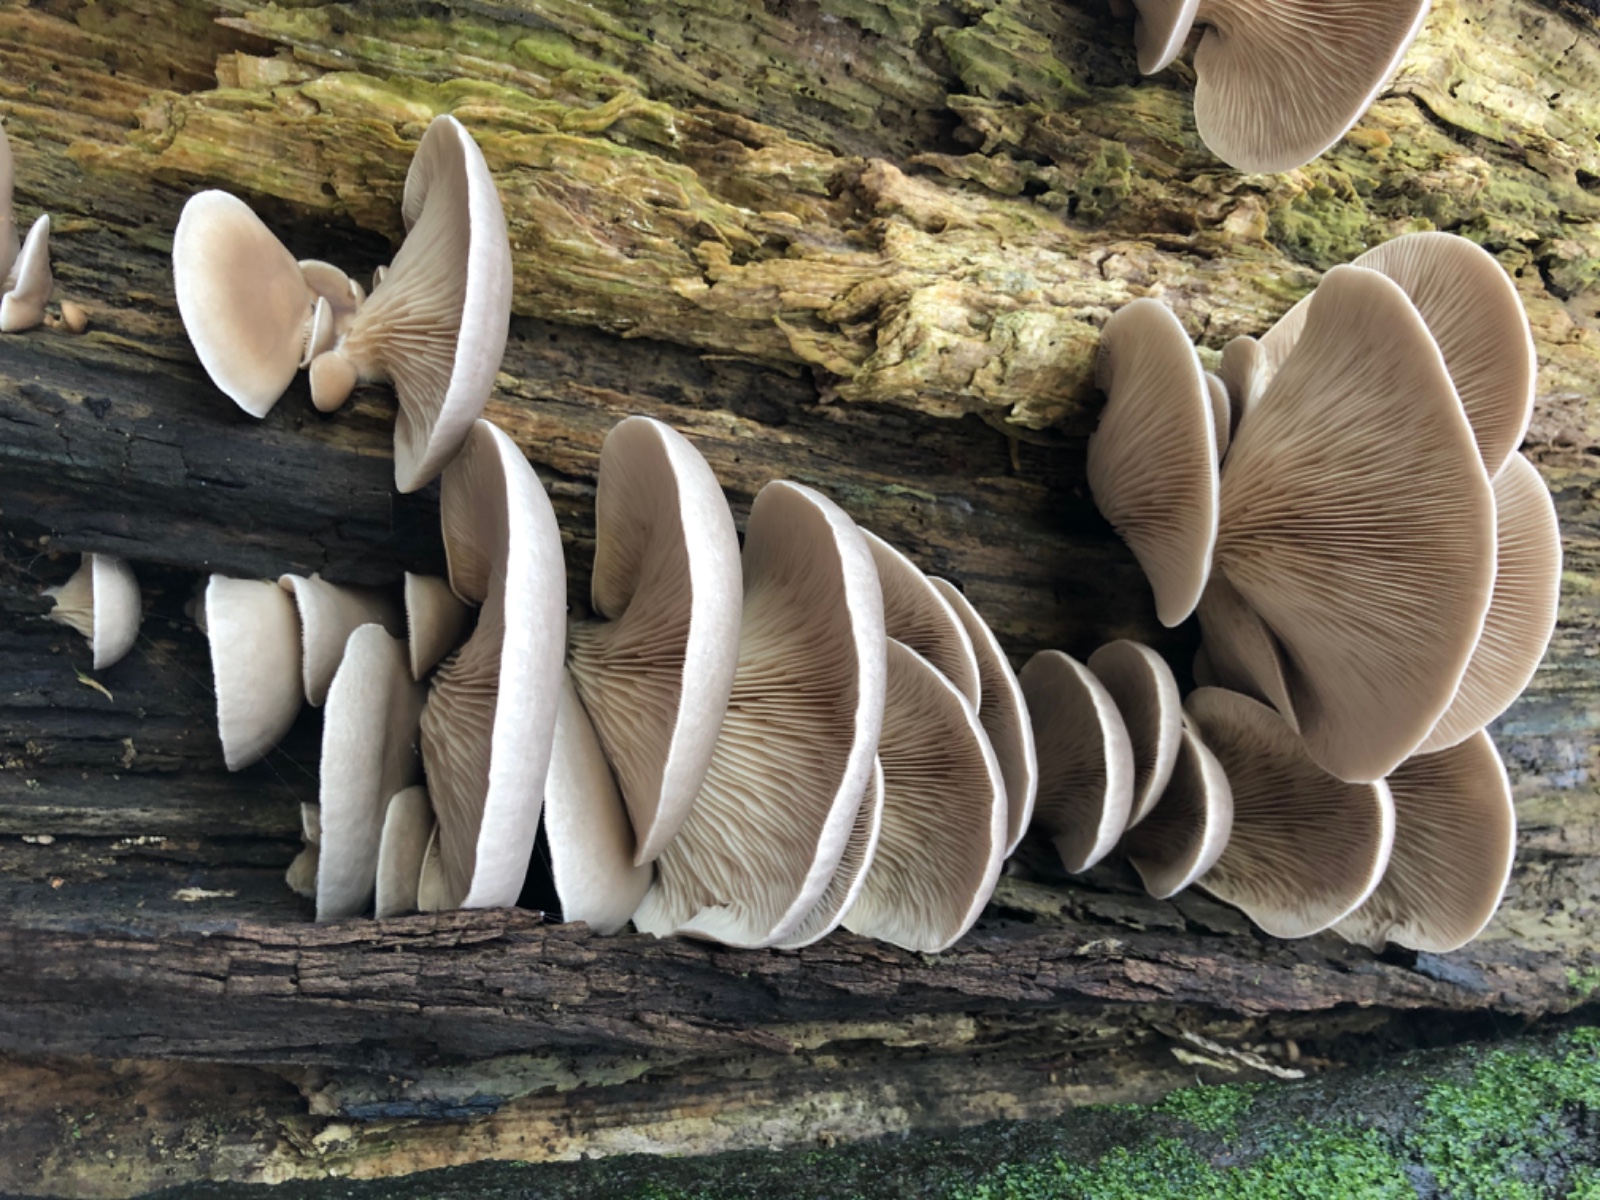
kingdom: Fungi
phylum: Basidiomycota
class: Agaricomycetes
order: Agaricales
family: Pleurotaceae
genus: Pleurotus
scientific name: Pleurotus ostreatus
